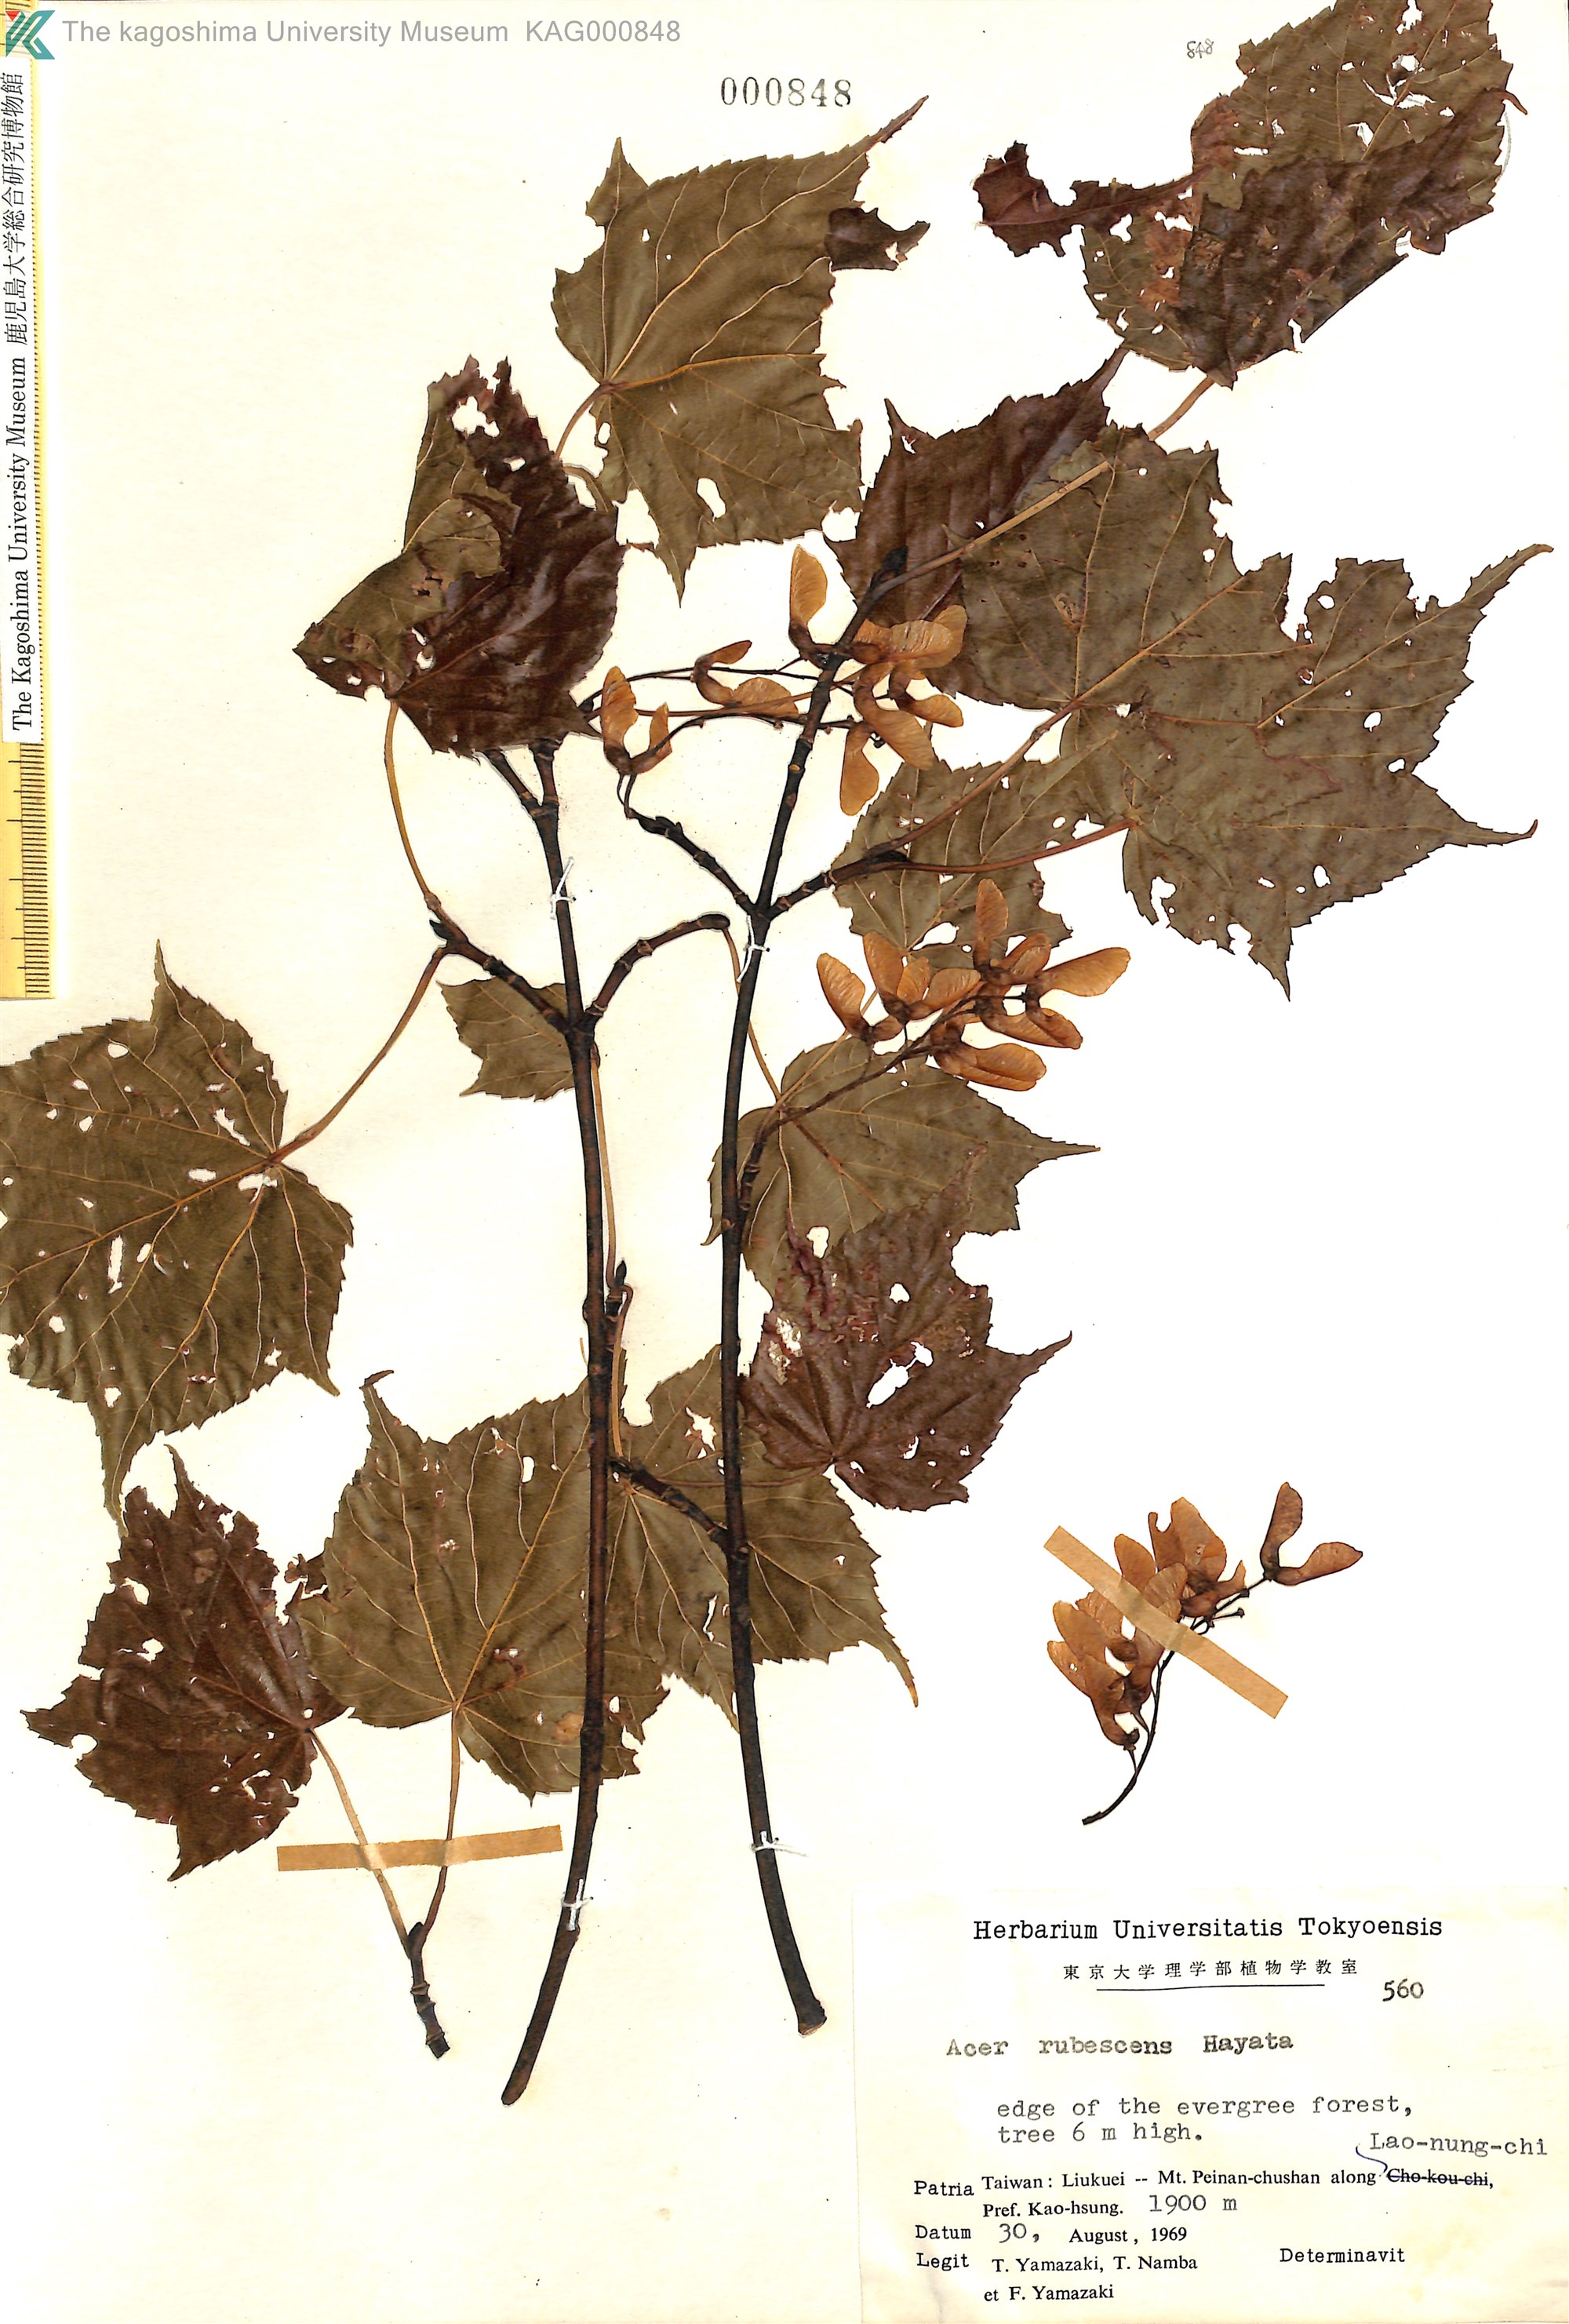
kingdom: Plantae
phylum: Tracheophyta
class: Magnoliopsida
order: Sapindales
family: Sapindaceae
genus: Acer
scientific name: Acer caudatifolium
